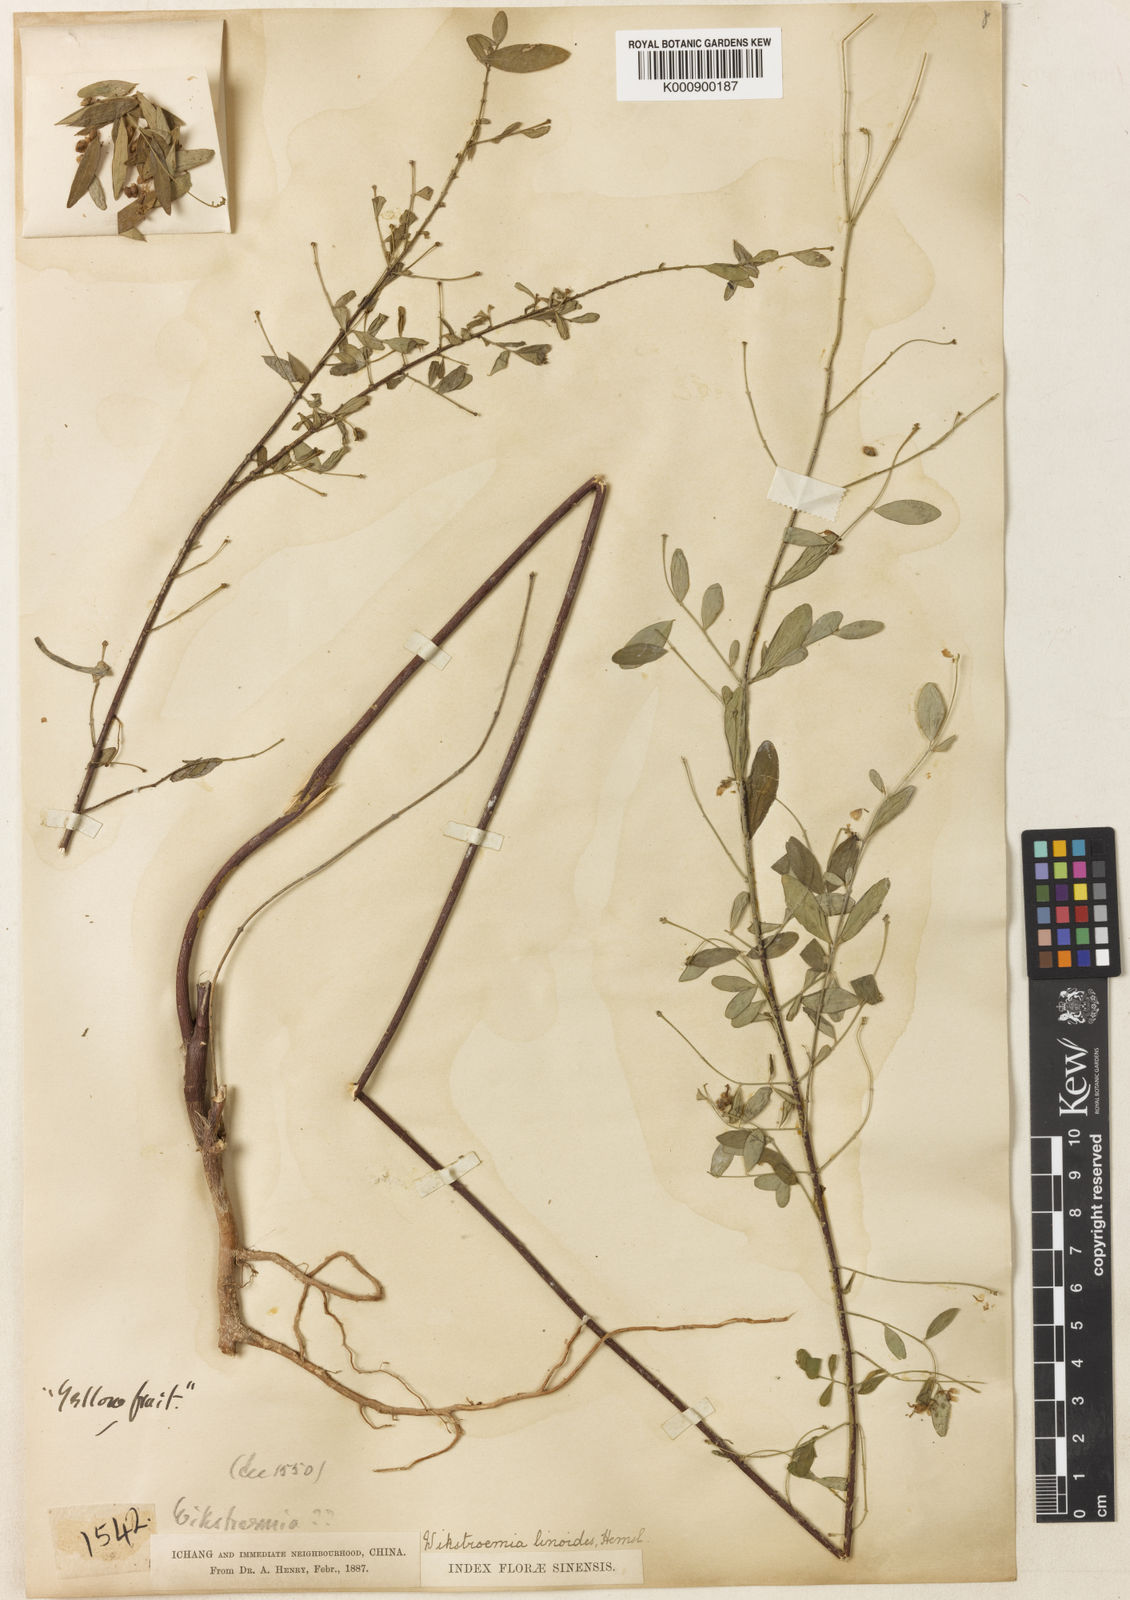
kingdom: Plantae
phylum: Tracheophyta
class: Magnoliopsida
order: Malvales
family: Thymelaeaceae
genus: Wikstroemia
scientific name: Wikstroemia linoides
